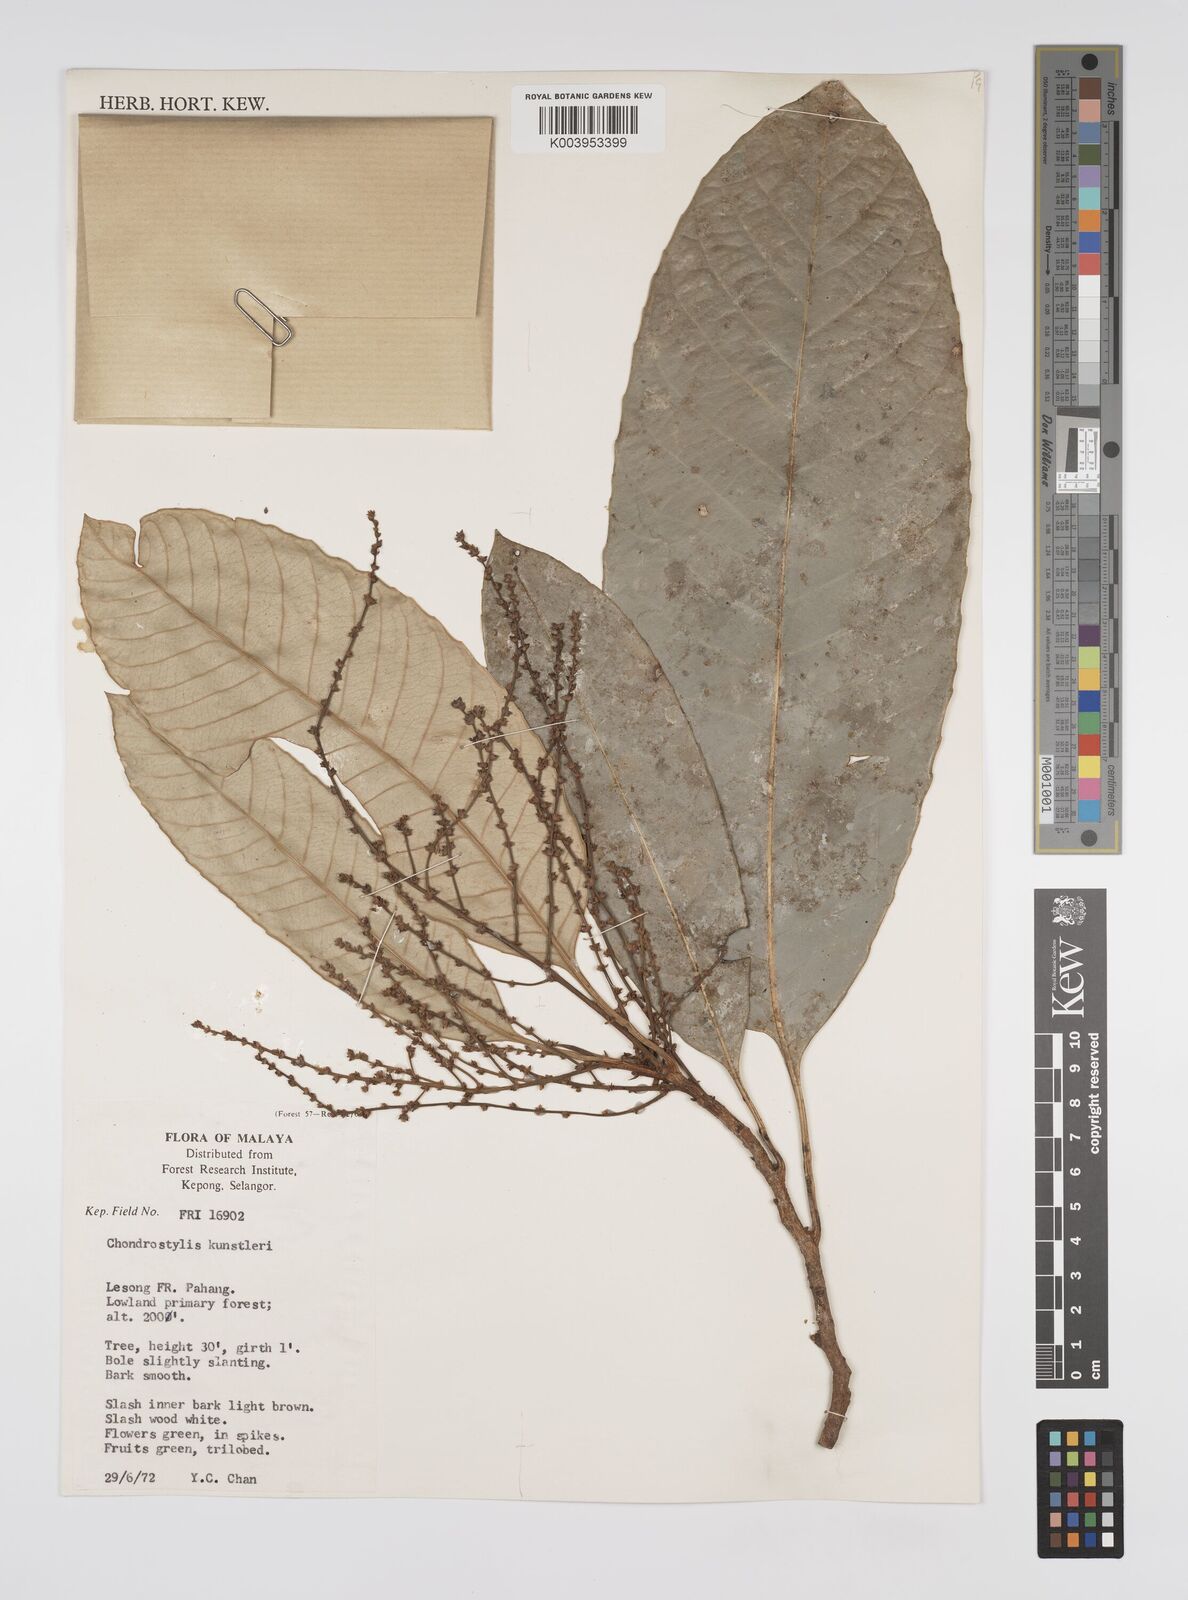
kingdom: Plantae
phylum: Tracheophyta
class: Magnoliopsida
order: Malpighiales
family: Euphorbiaceae
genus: Chondrostylis
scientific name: Chondrostylis kunstleri
